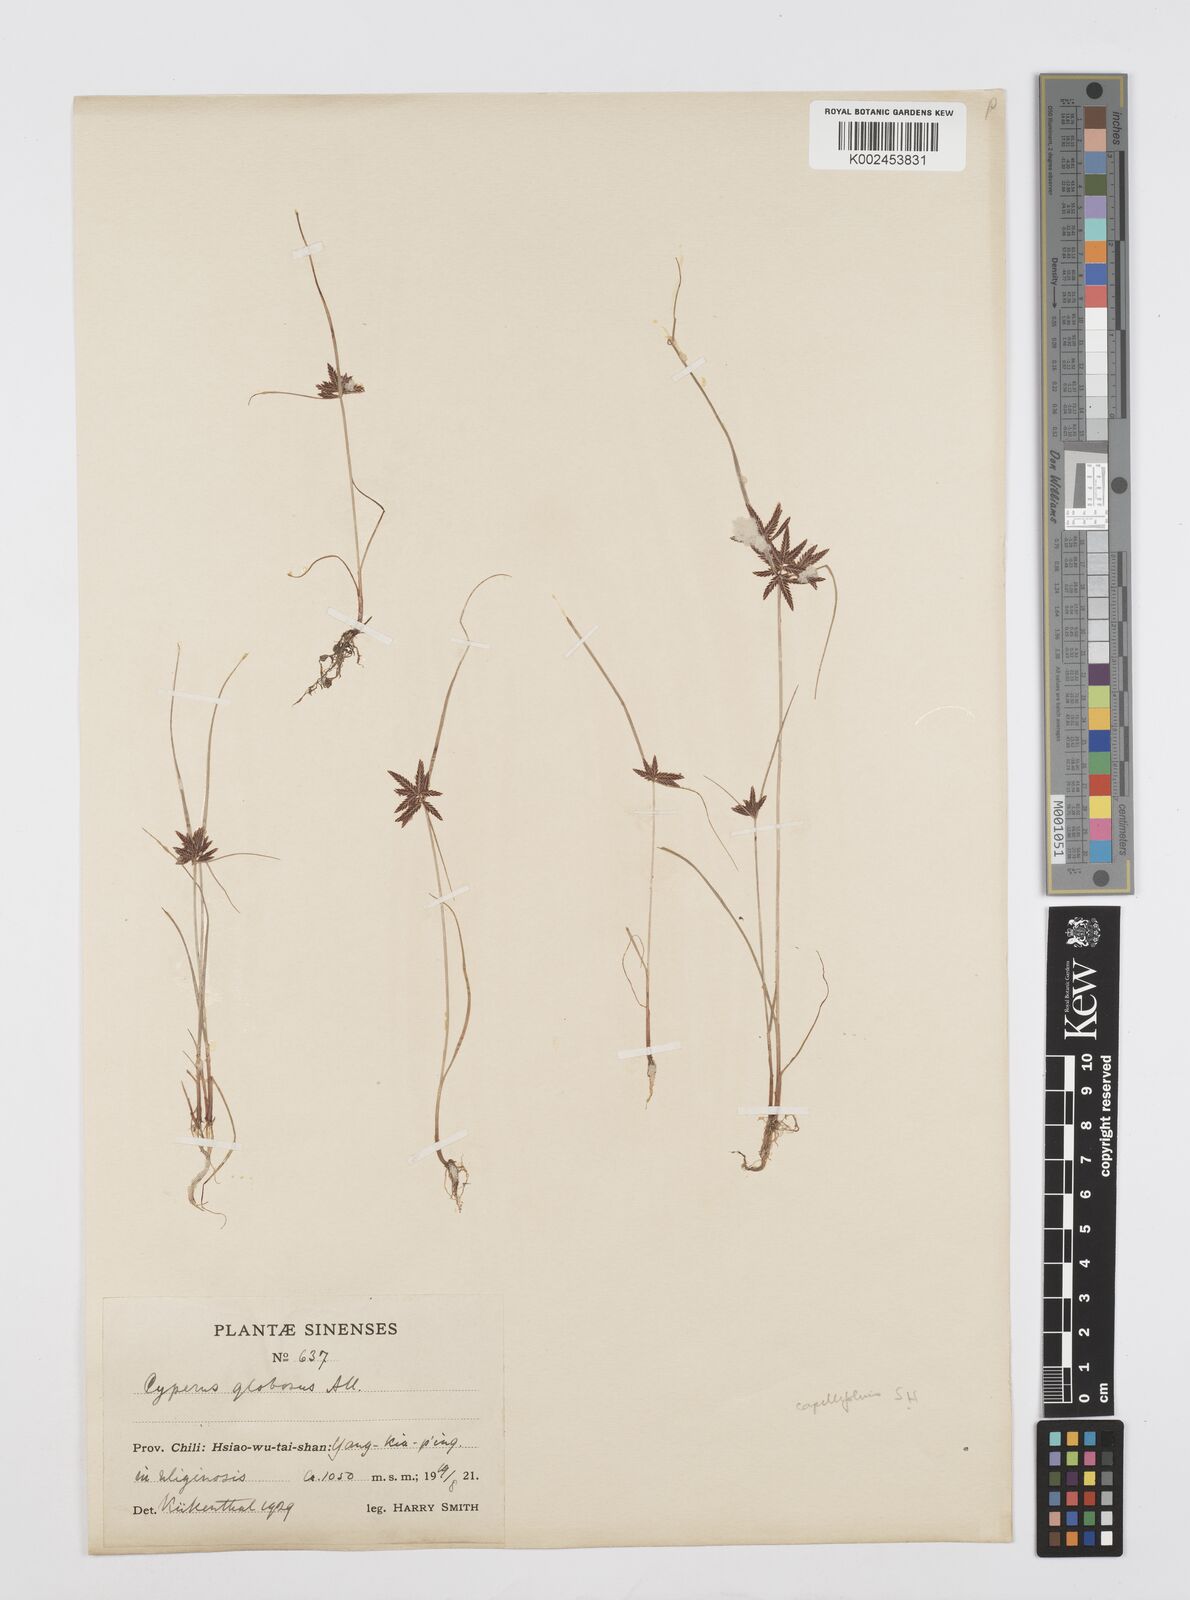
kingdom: Plantae
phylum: Tracheophyta
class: Liliopsida
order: Poales
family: Cyperaceae
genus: Cyperus
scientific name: Cyperus flavidus
